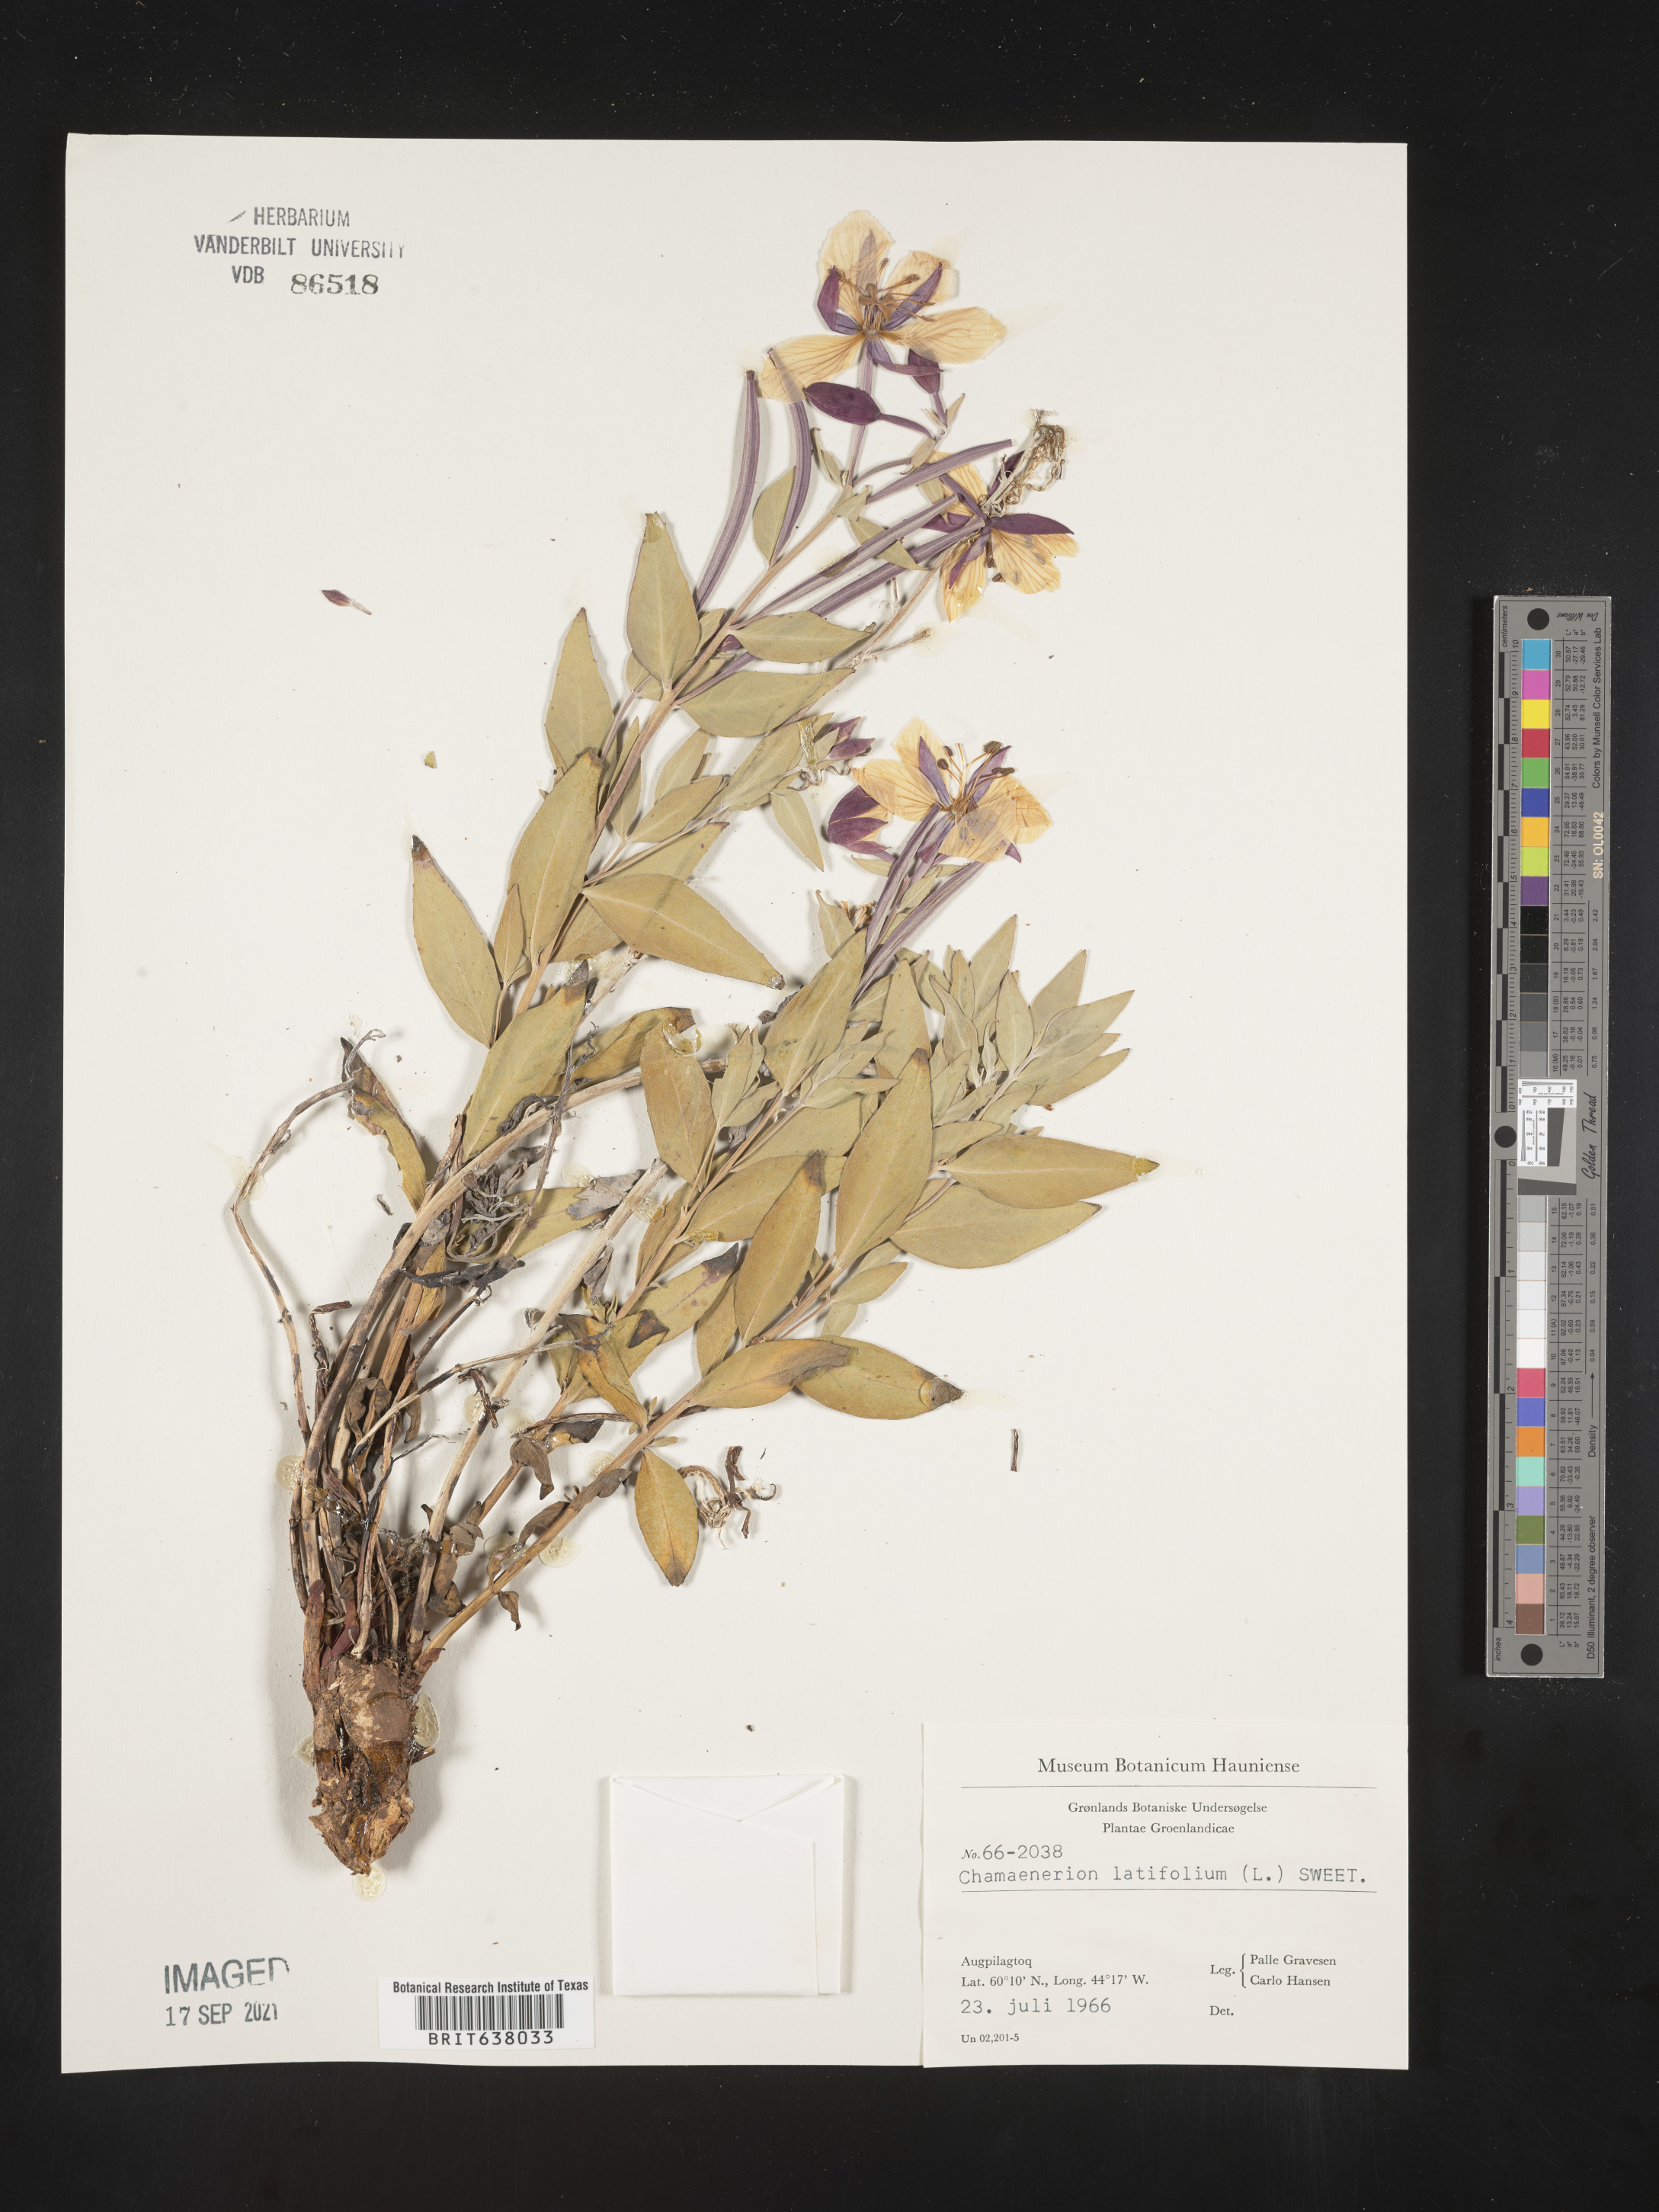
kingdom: Plantae
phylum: Tracheophyta
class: Magnoliopsida
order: Myrtales
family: Onagraceae
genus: Chamaenerion
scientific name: Chamaenerion
